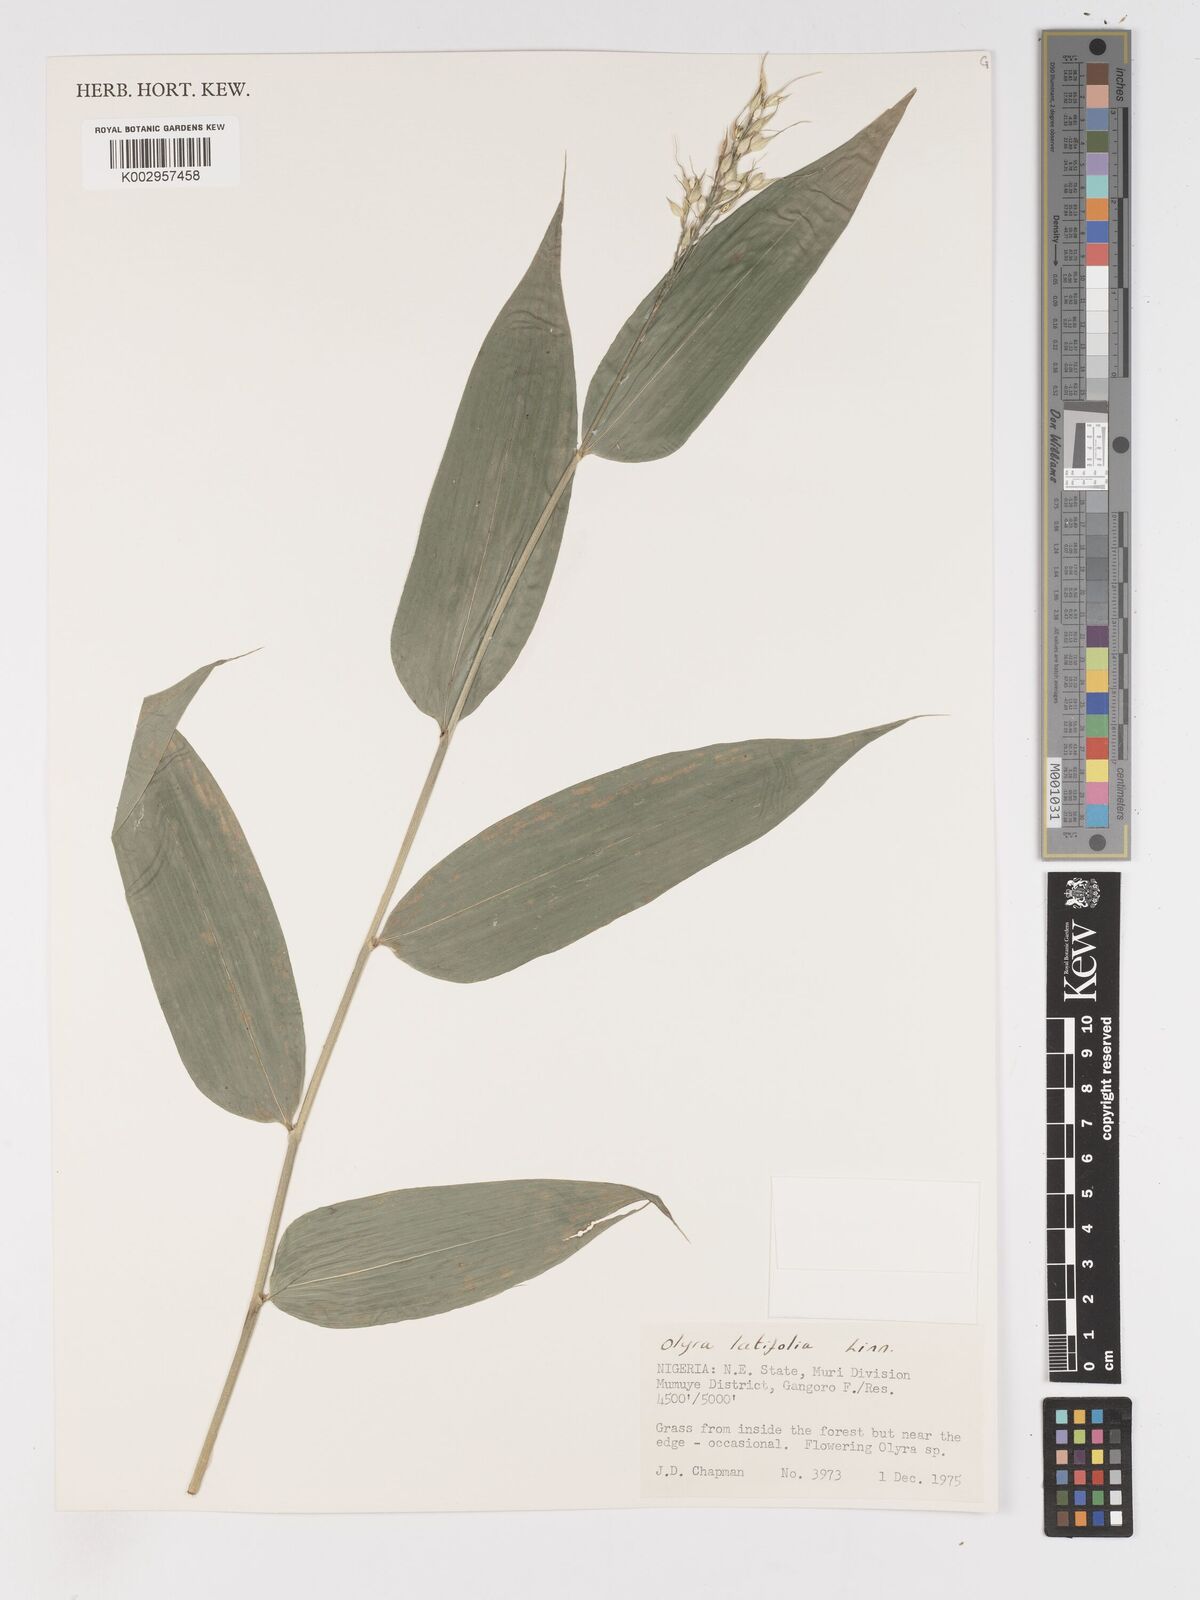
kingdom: Plantae
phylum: Tracheophyta
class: Liliopsida
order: Poales
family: Poaceae
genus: Olyra
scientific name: Olyra latifolia
